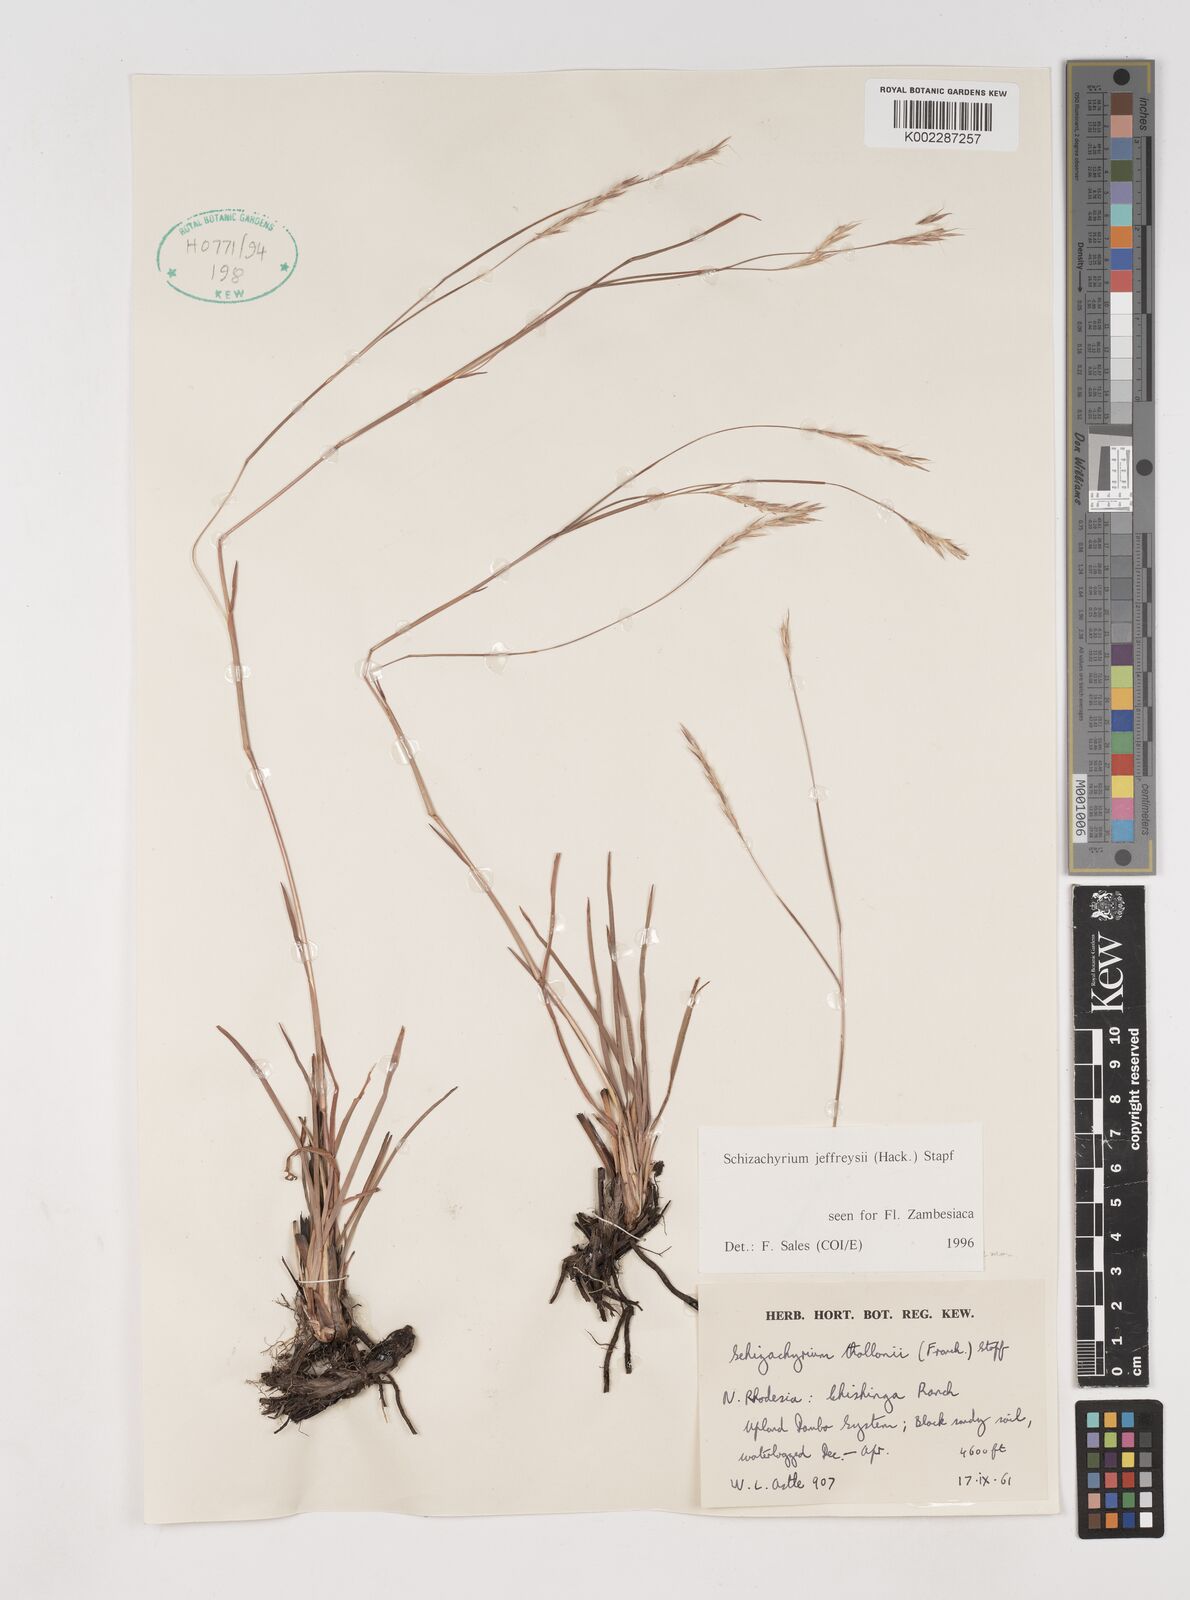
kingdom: Plantae
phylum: Tracheophyta
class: Liliopsida
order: Poales
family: Poaceae
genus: Schizachyrium
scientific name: Schizachyrium jeffreysii
